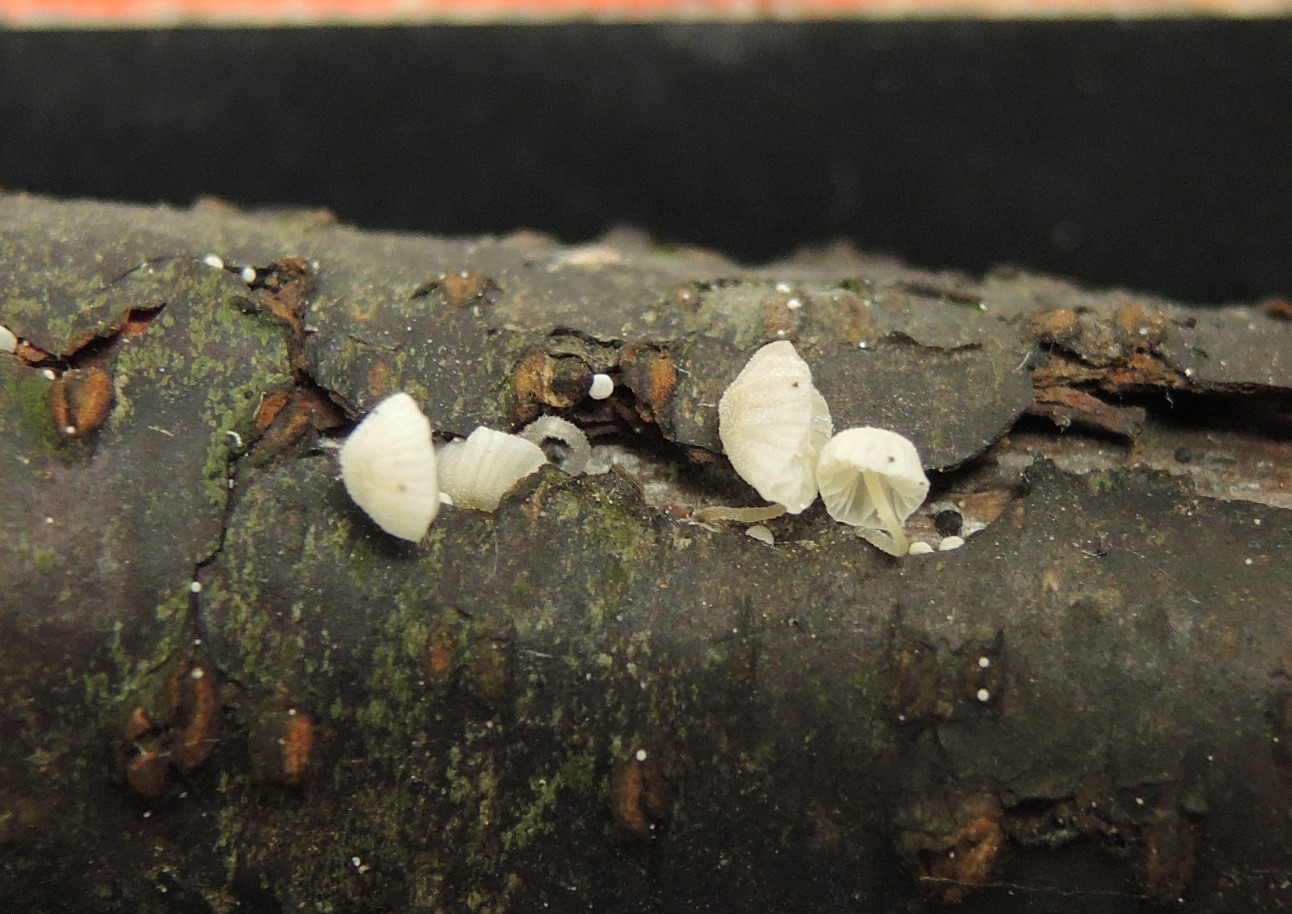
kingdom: Fungi
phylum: Basidiomycota
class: Agaricomycetes
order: Agaricales
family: Mycenaceae
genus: Mycena
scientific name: Mycena tenerrima
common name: pudret huesvamp
